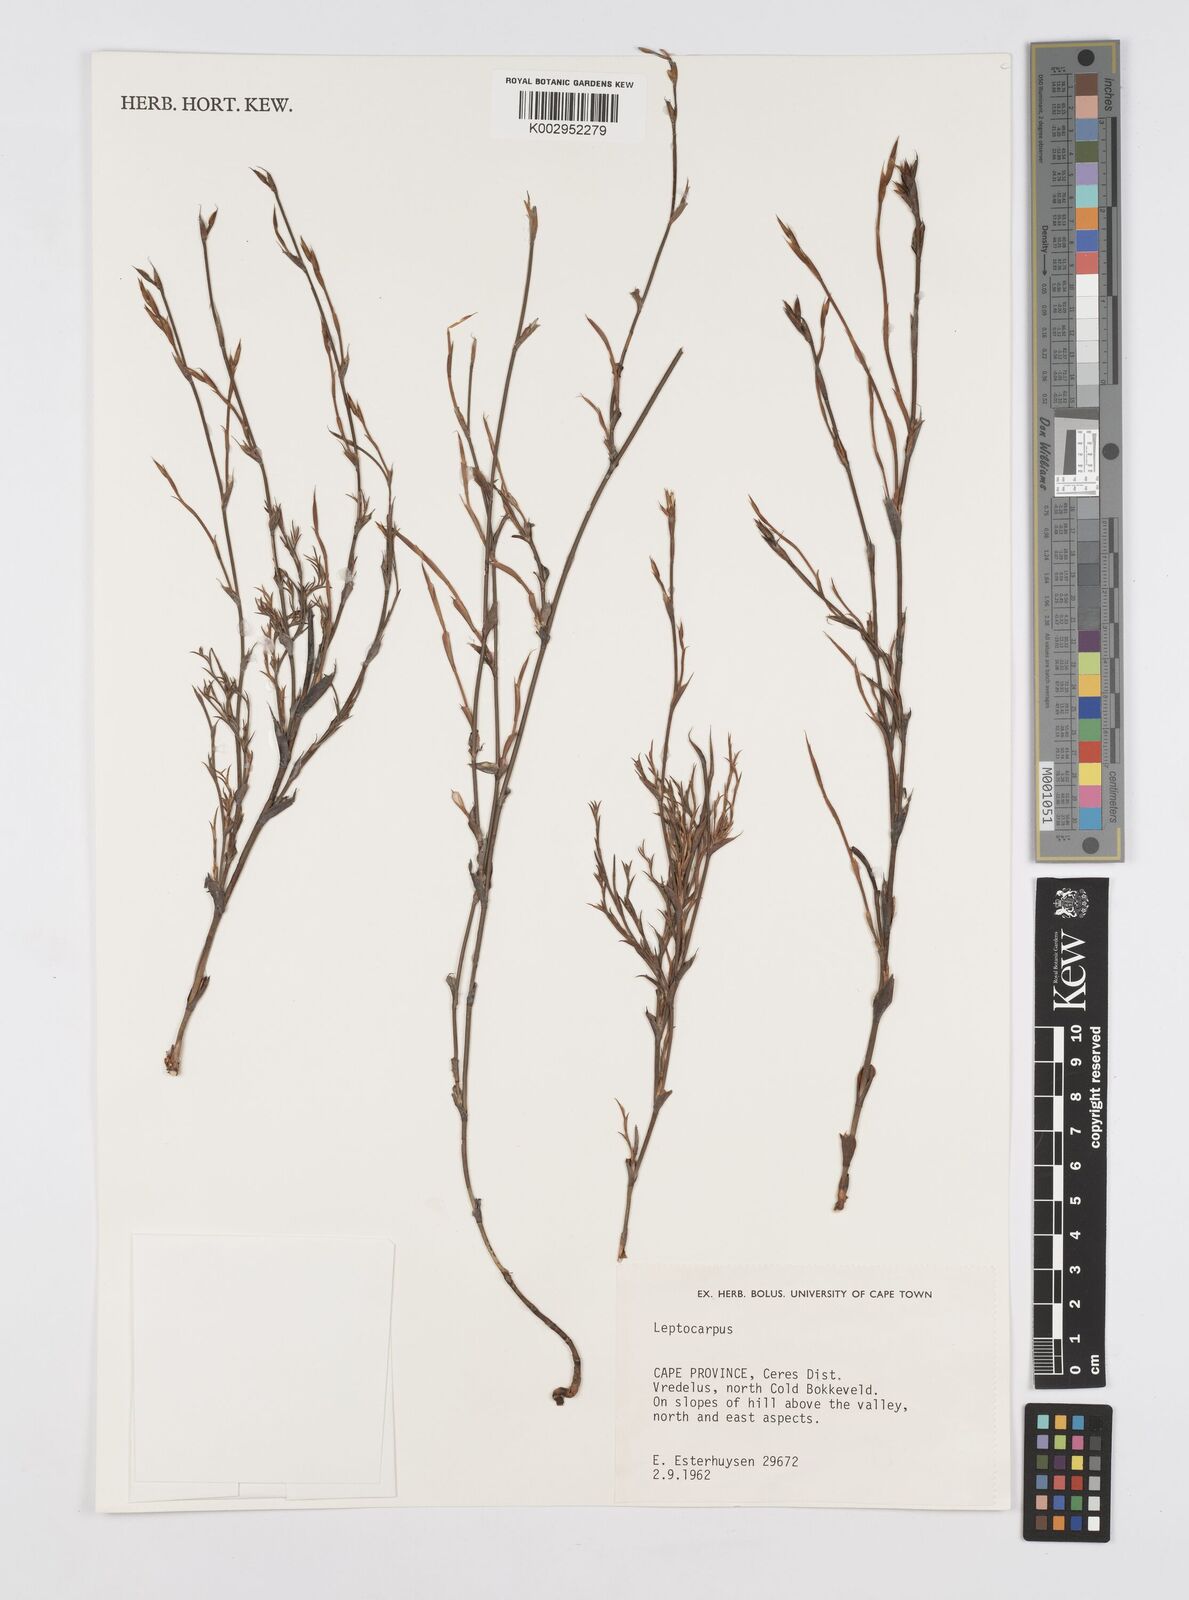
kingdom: Plantae
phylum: Tracheophyta
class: Liliopsida
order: Poales
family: Restionaceae
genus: Restio
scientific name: Restio
